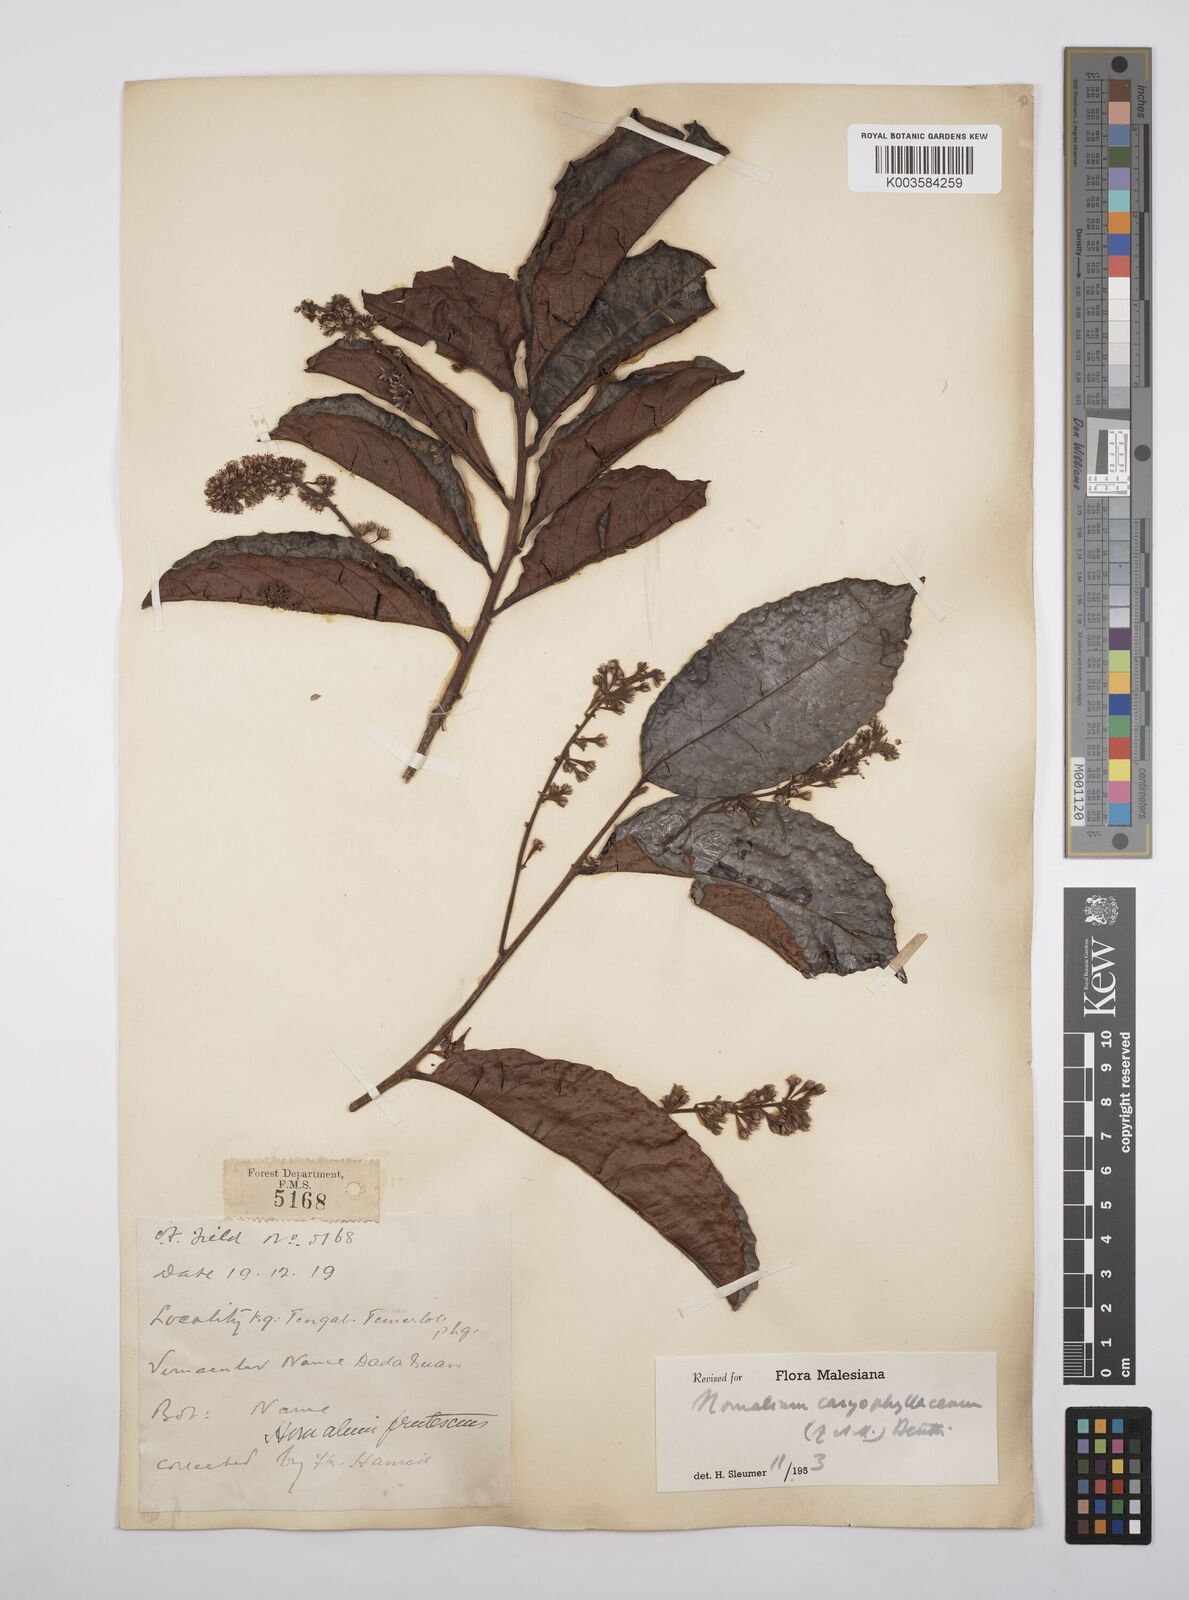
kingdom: Plantae
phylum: Tracheophyta
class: Magnoliopsida
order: Malpighiales
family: Salicaceae
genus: Homalium
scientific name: Homalium caryophyllaceum
